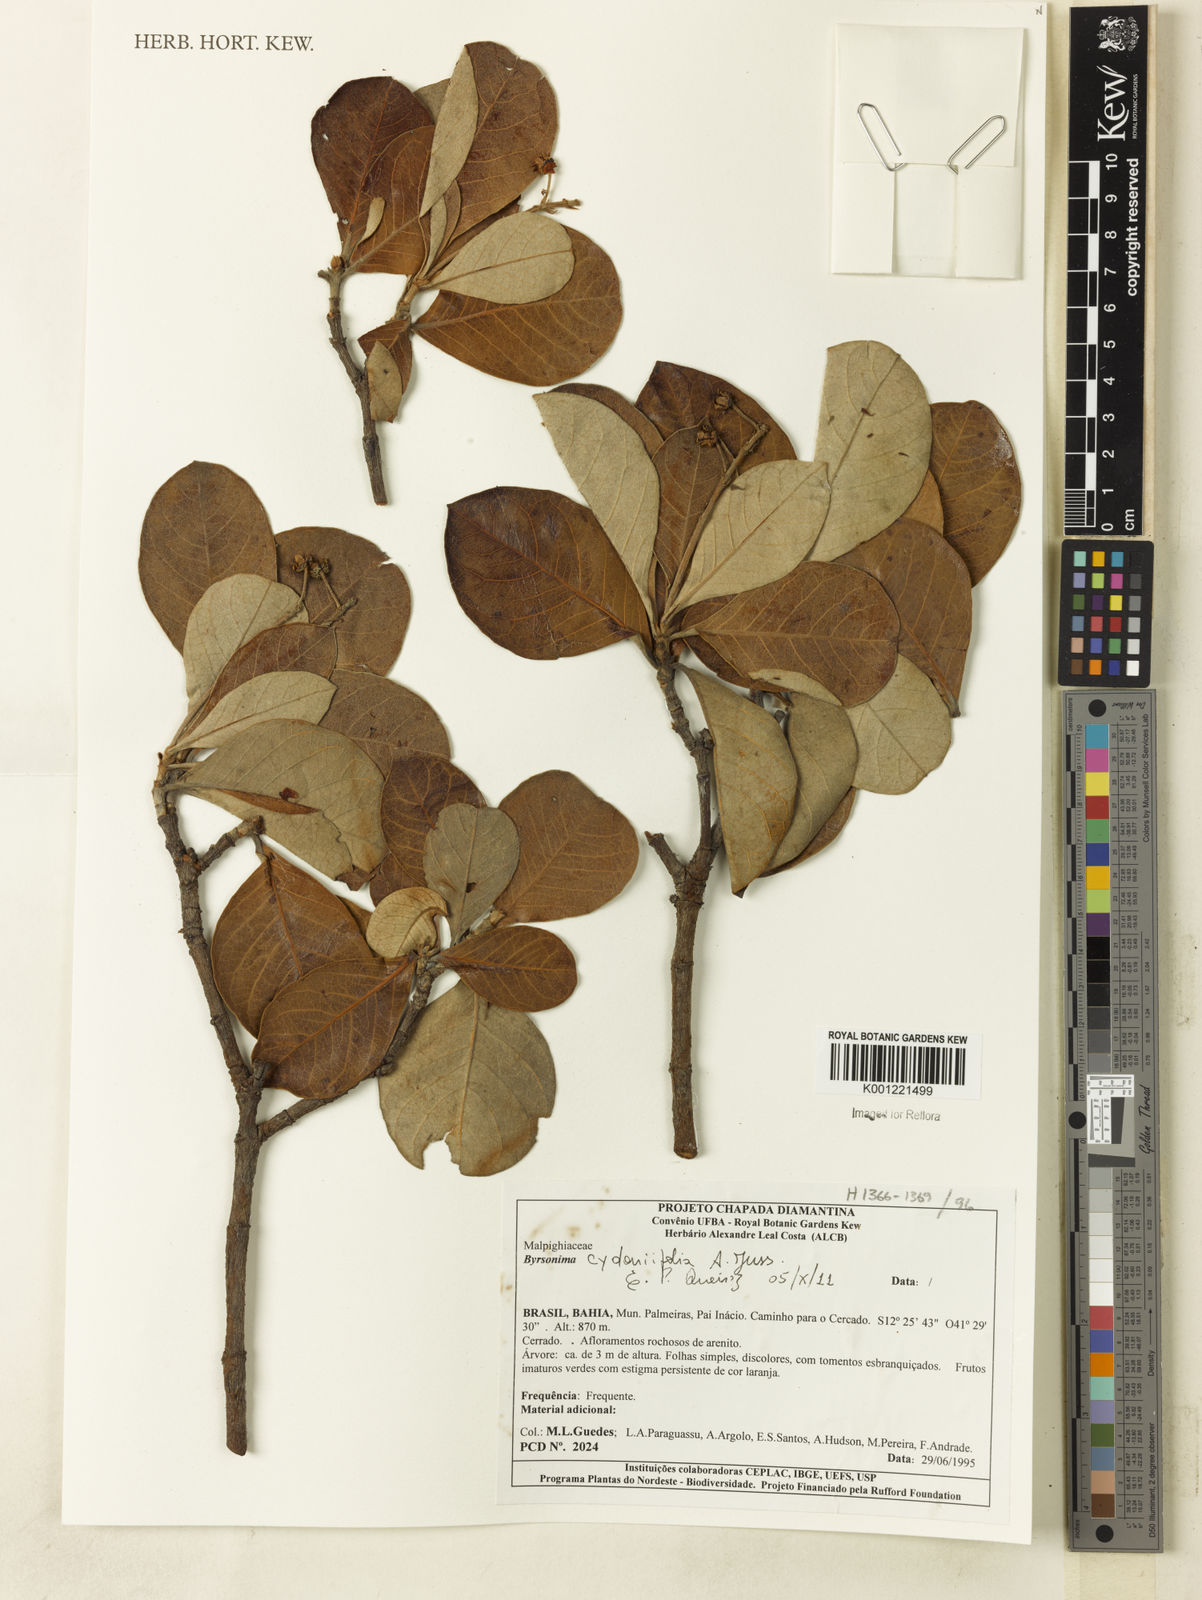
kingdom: Plantae
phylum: Tracheophyta
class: Magnoliopsida
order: Malpighiales
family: Malpighiaceae
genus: Byrsonima
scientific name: Byrsonima cydoniifolia
